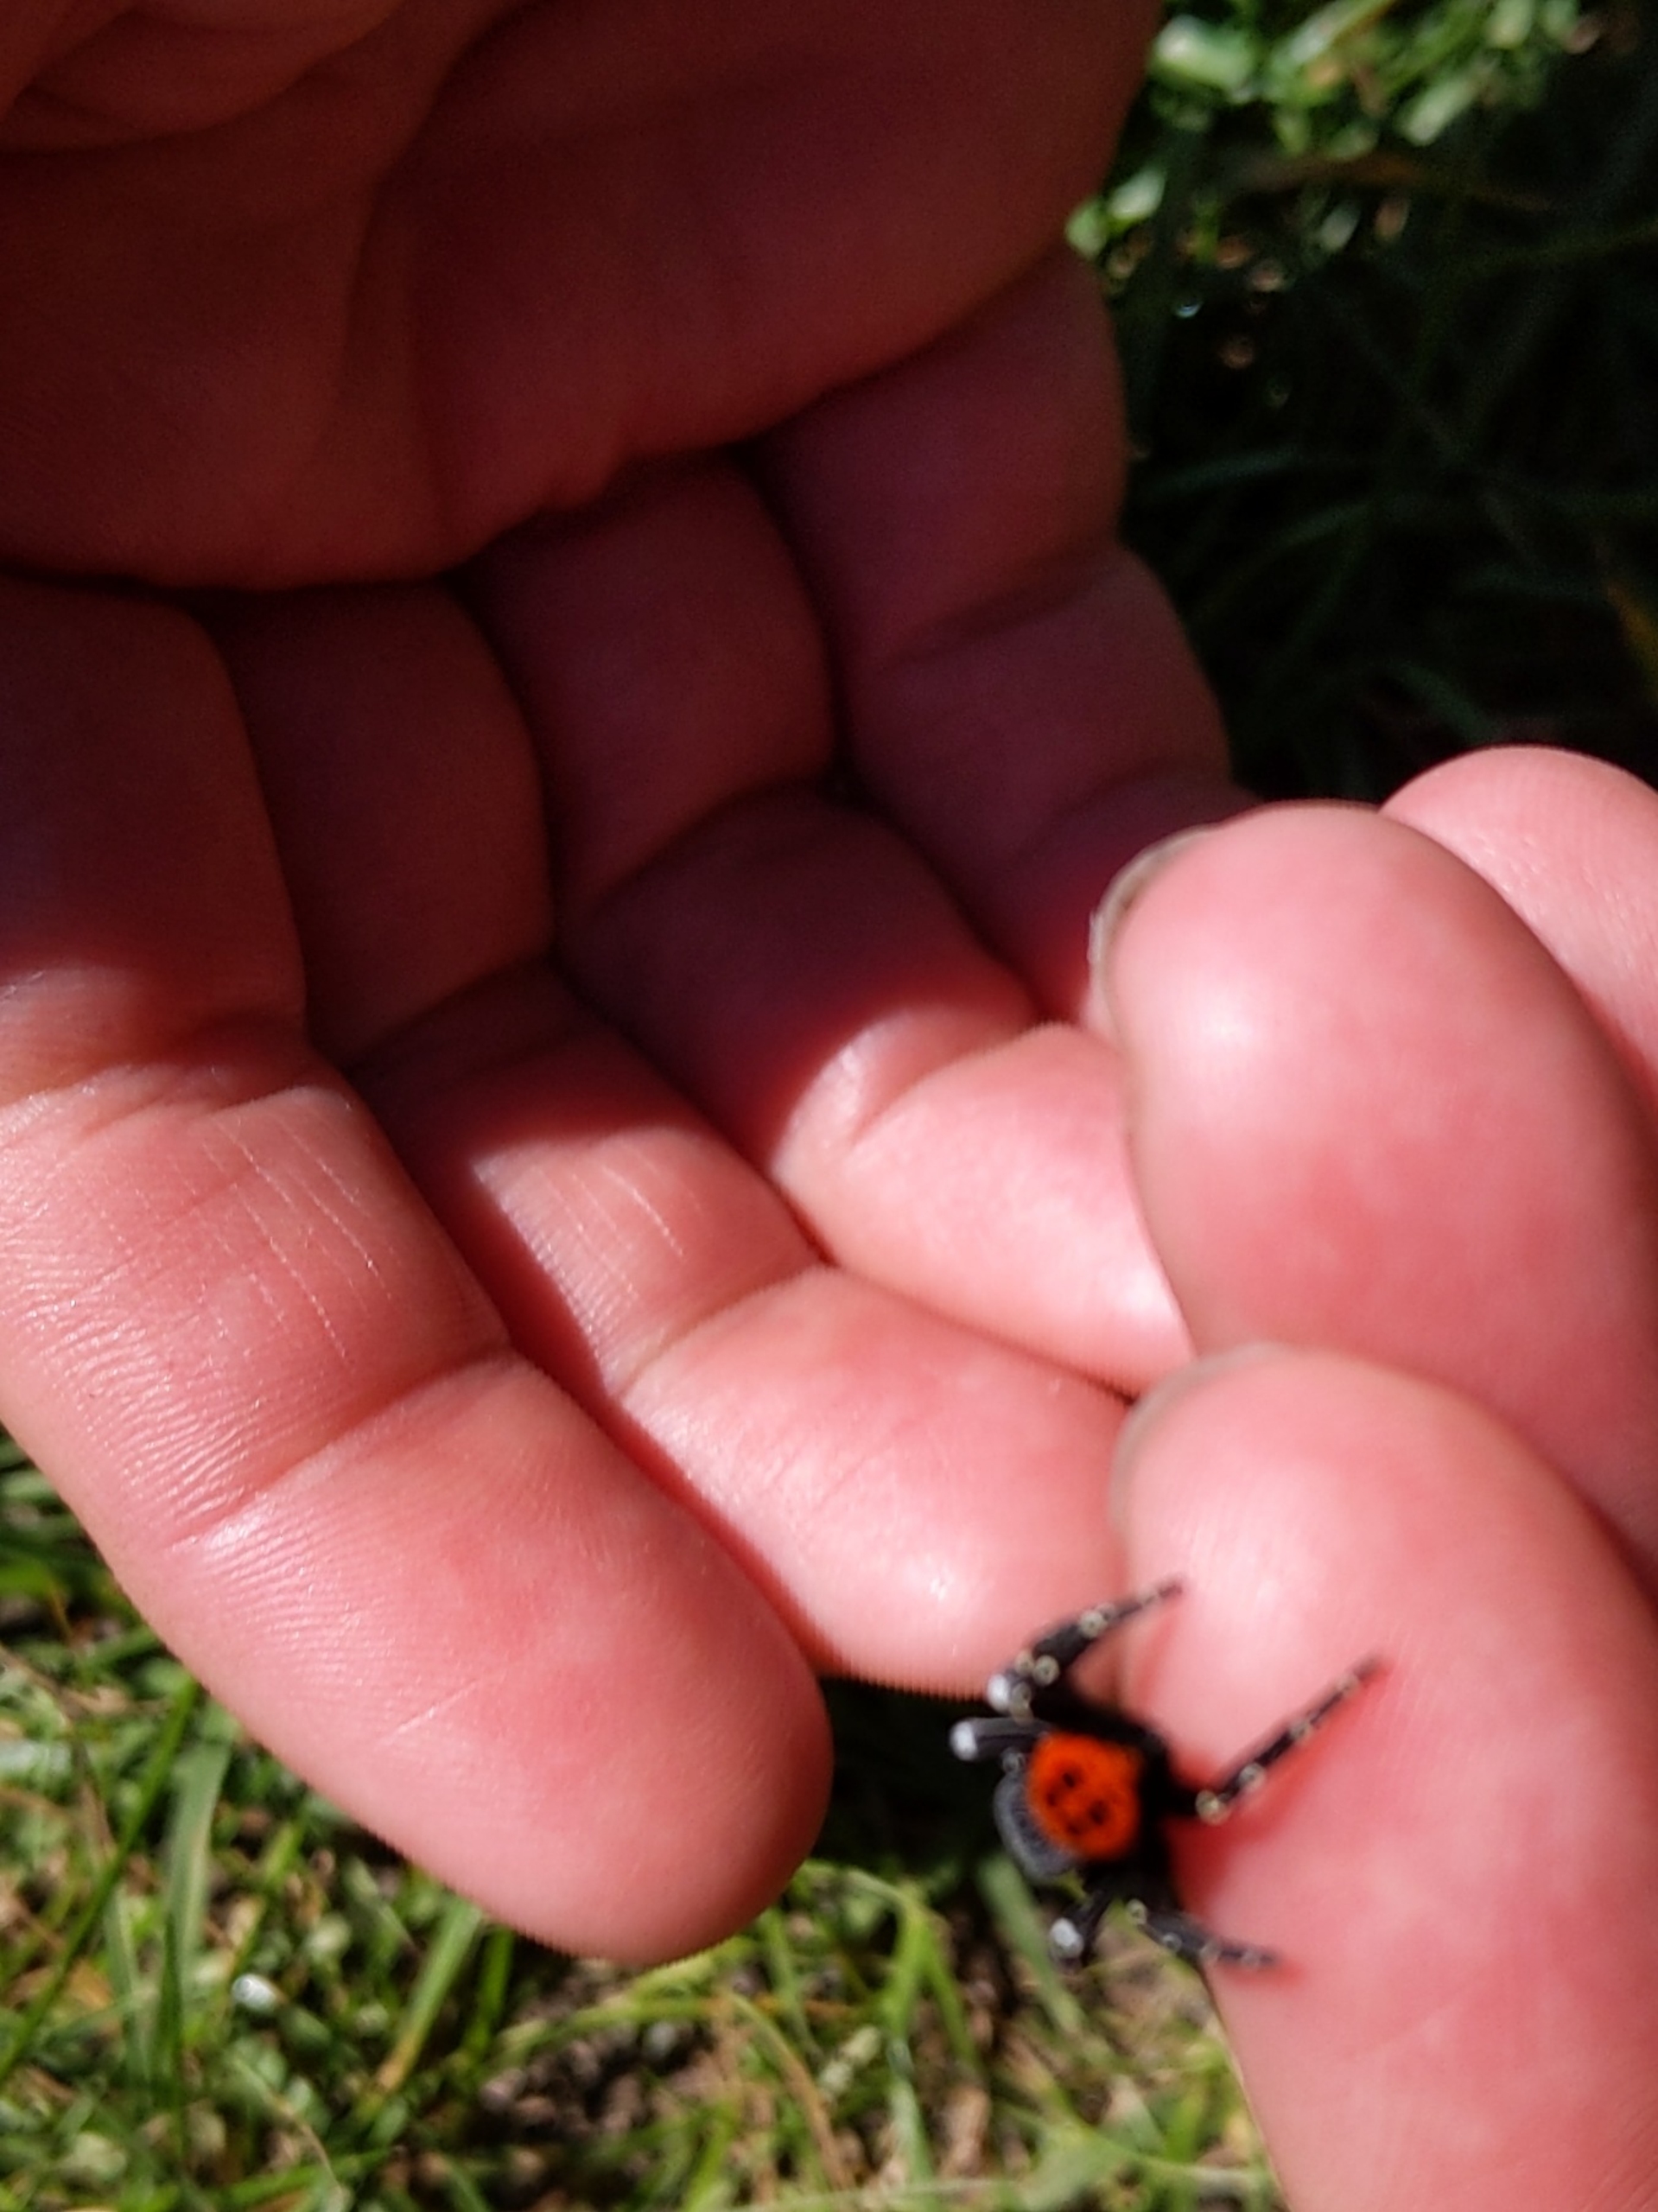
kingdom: Animalia
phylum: Arthropoda
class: Arachnida
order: Araneae
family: Eresidae
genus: Eresus
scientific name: Eresus sandaliatus
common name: Mariehøneedderkop
